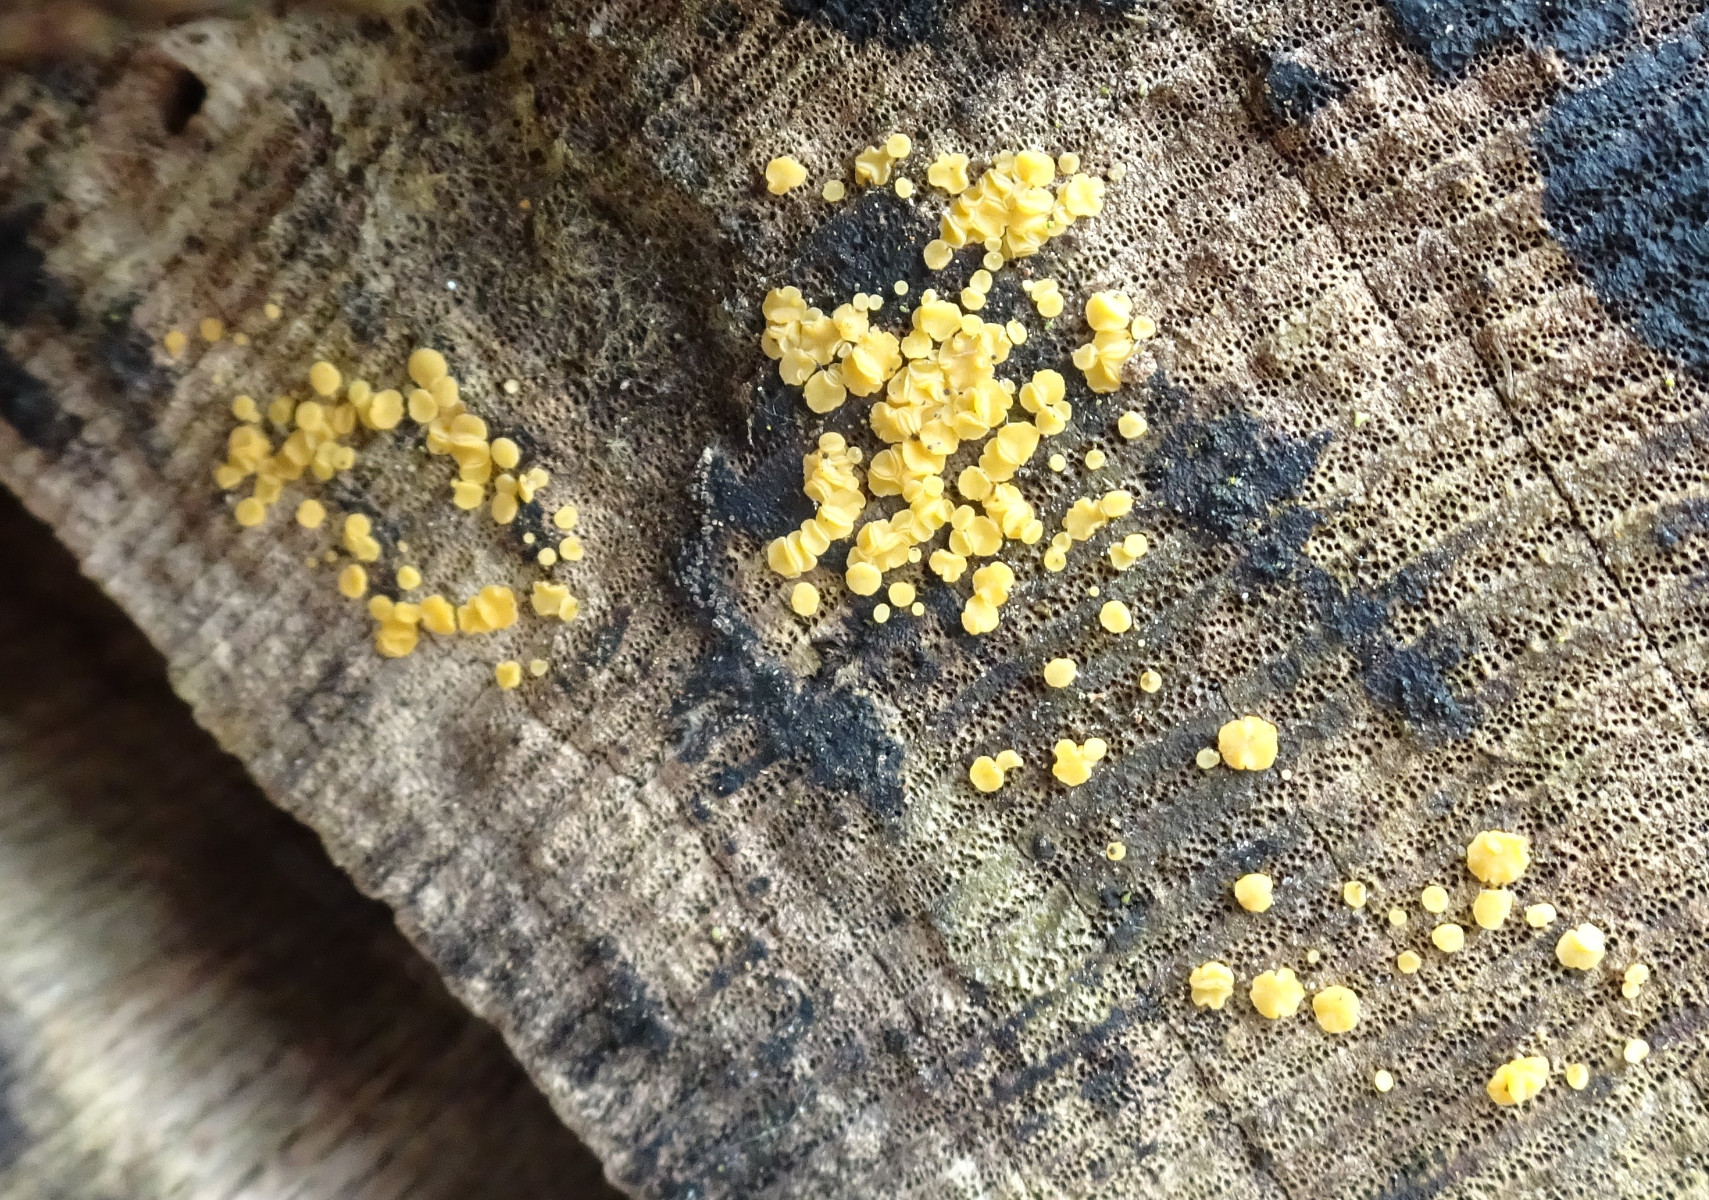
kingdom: Fungi
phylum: Ascomycota
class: Leotiomycetes
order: Helotiales
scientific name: Helotiales
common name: stilkskiveordenen
